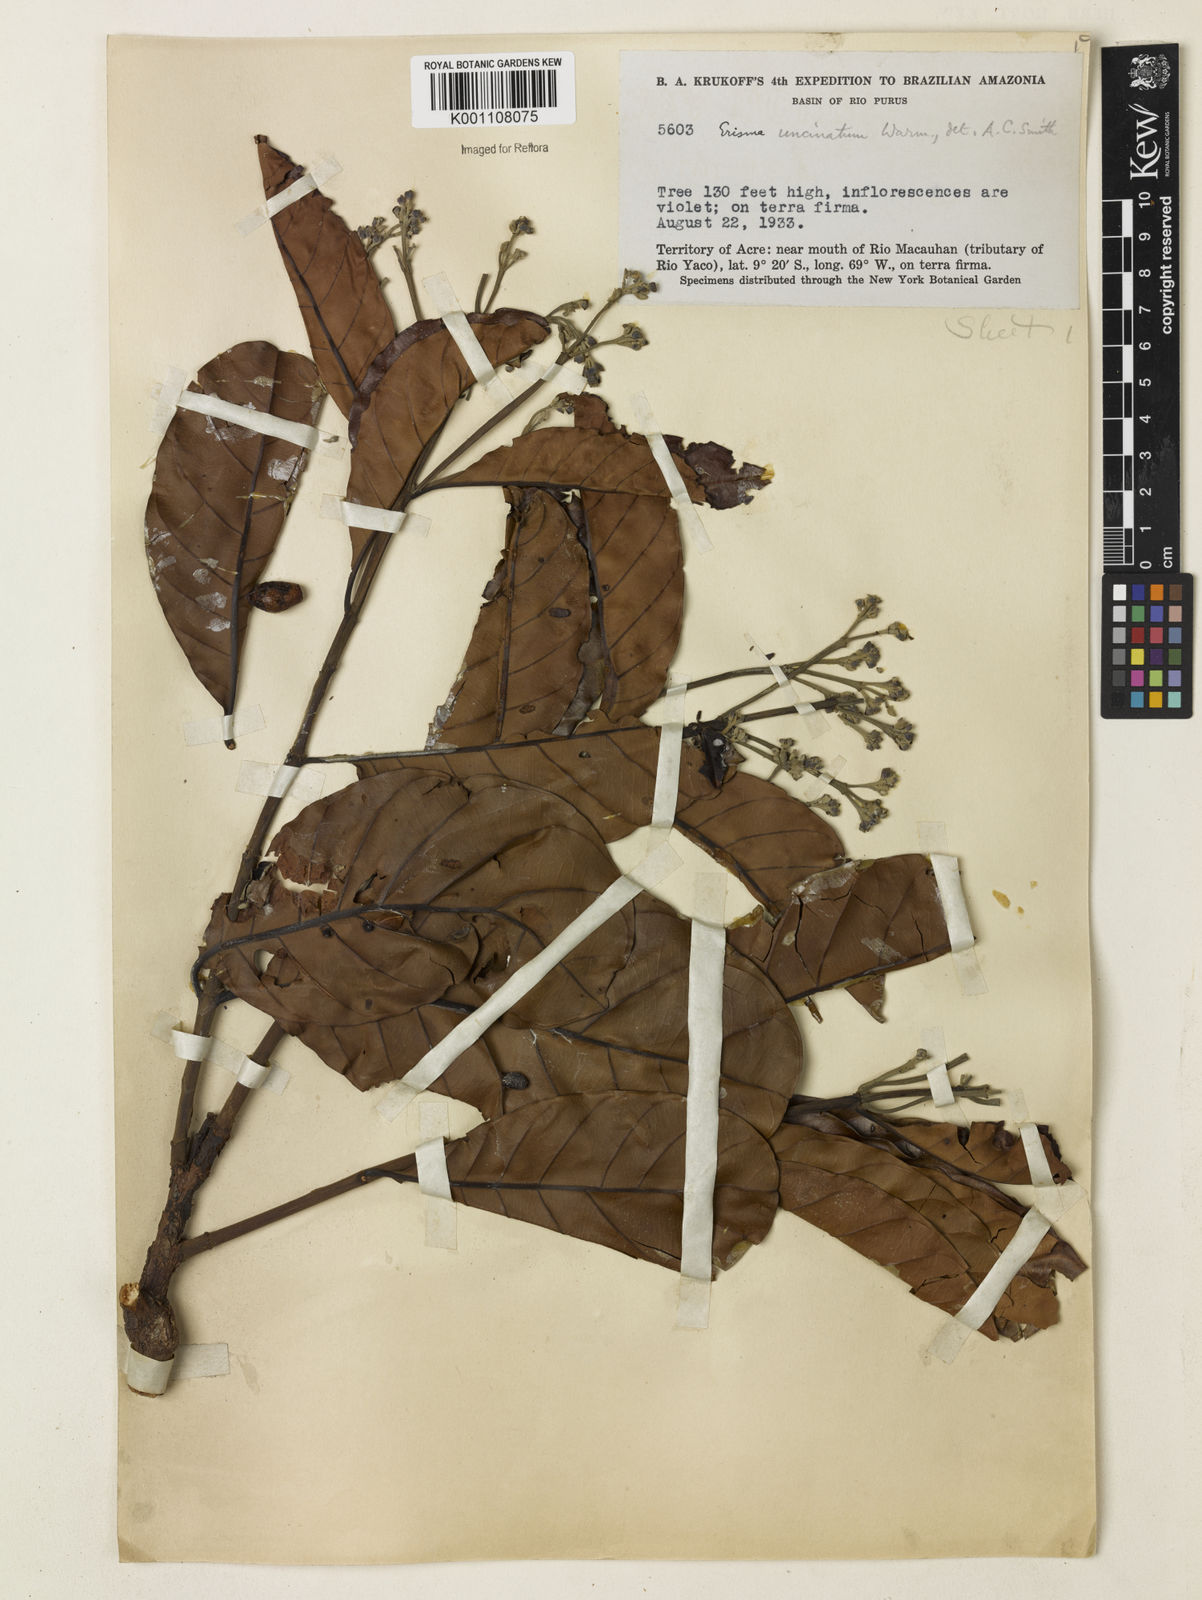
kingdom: Plantae
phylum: Tracheophyta
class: Magnoliopsida
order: Myrtales
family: Vochysiaceae
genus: Erisma
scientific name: Erisma uncinatum
